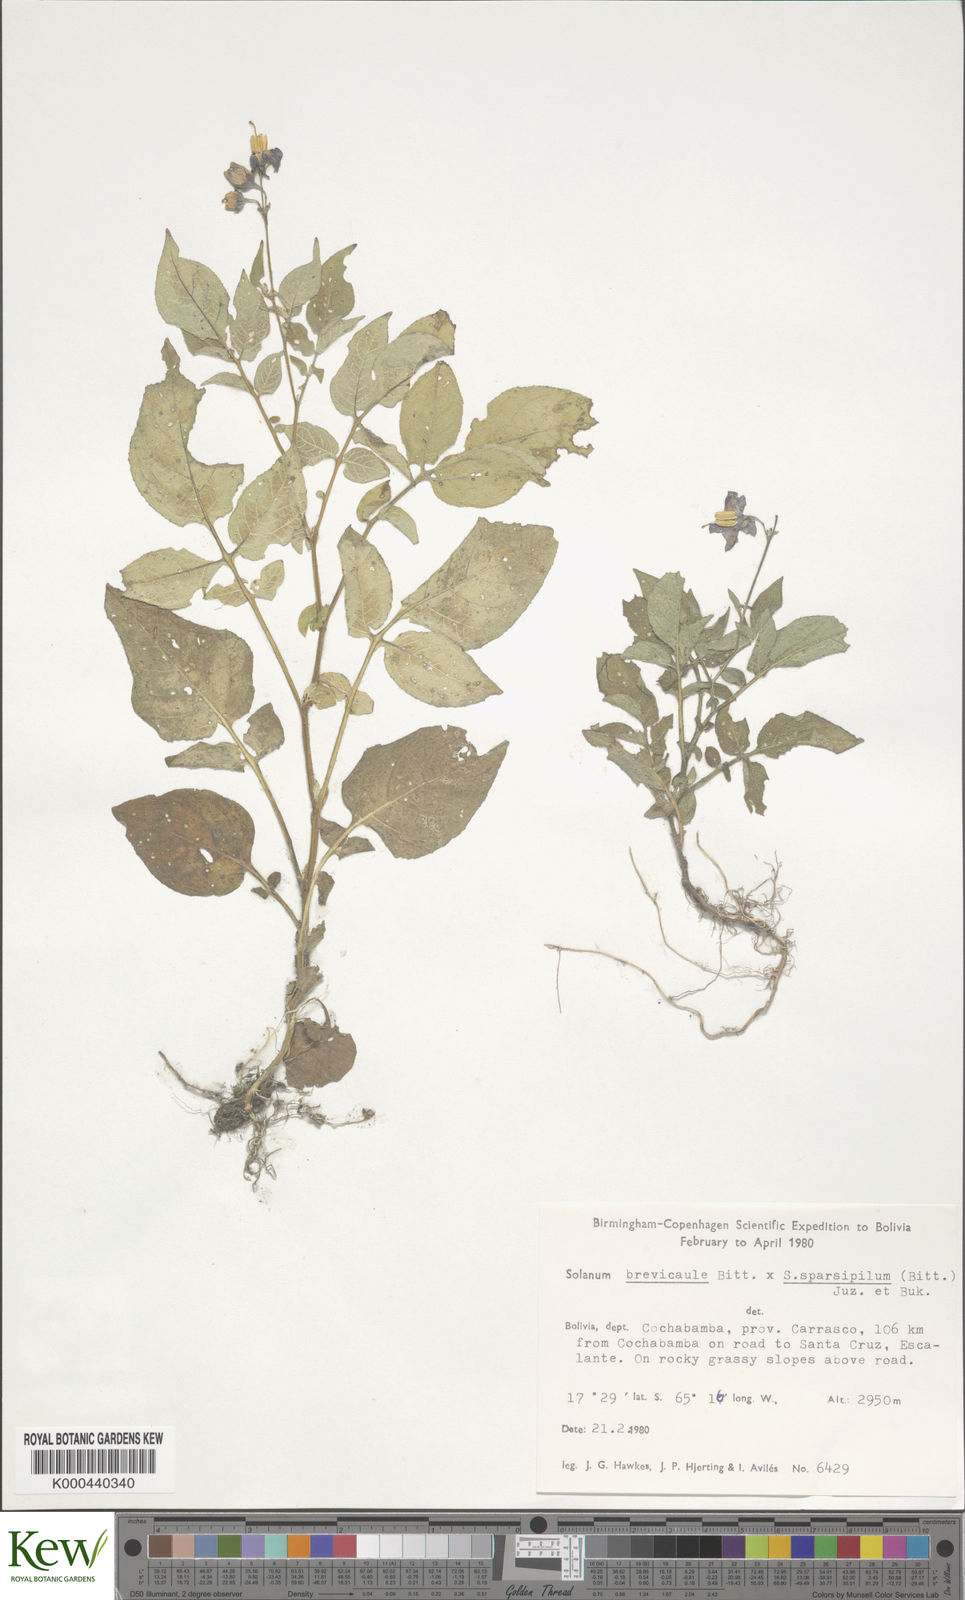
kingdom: Plantae
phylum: Tracheophyta
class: Magnoliopsida
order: Solanales
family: Solanaceae
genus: Solanum
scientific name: Solanum brevicaule
